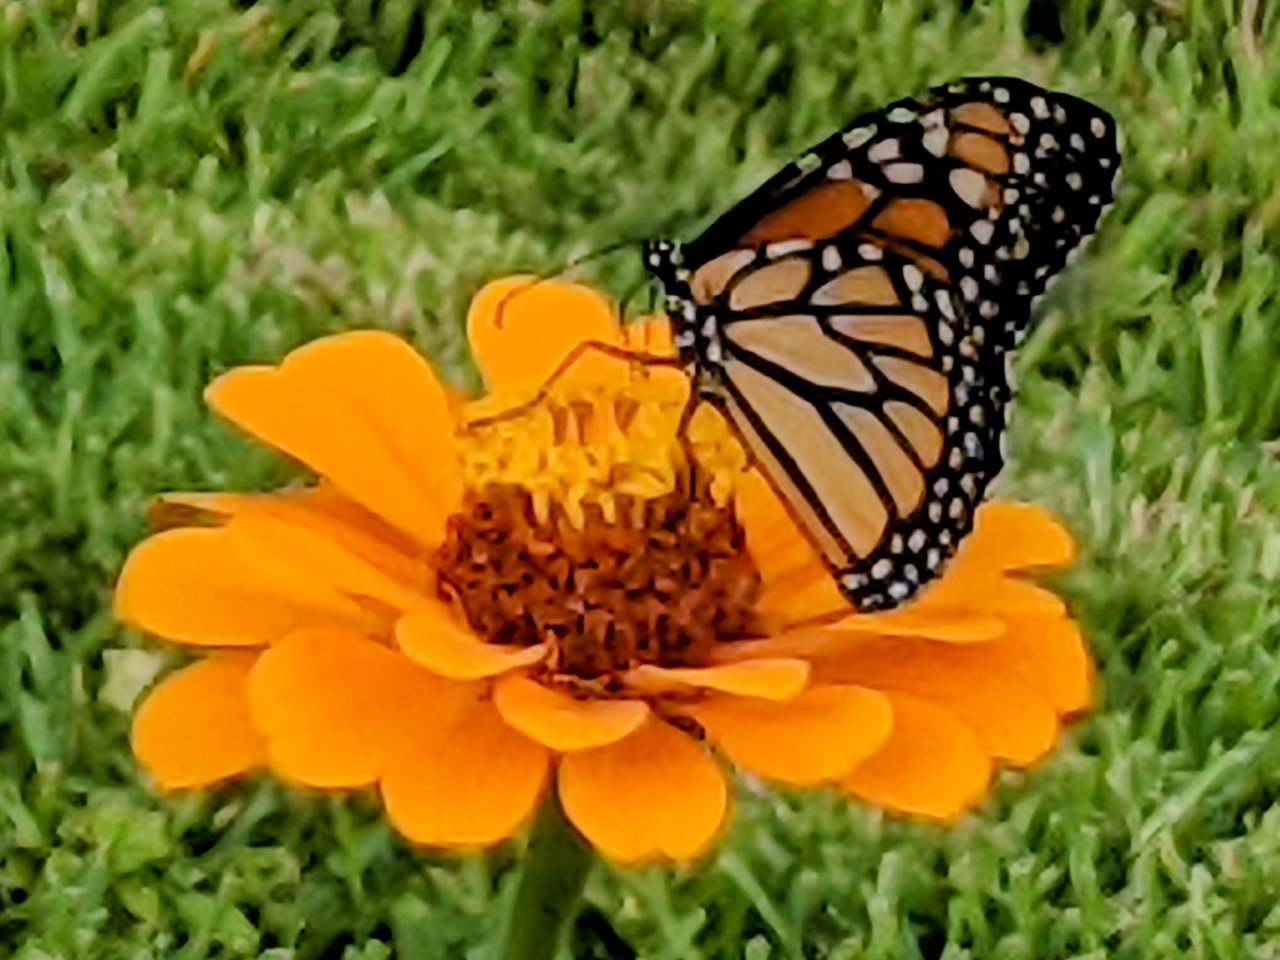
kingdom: Animalia
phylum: Arthropoda
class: Insecta
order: Lepidoptera
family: Nymphalidae
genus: Danaus
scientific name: Danaus plexippus
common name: Monarch
